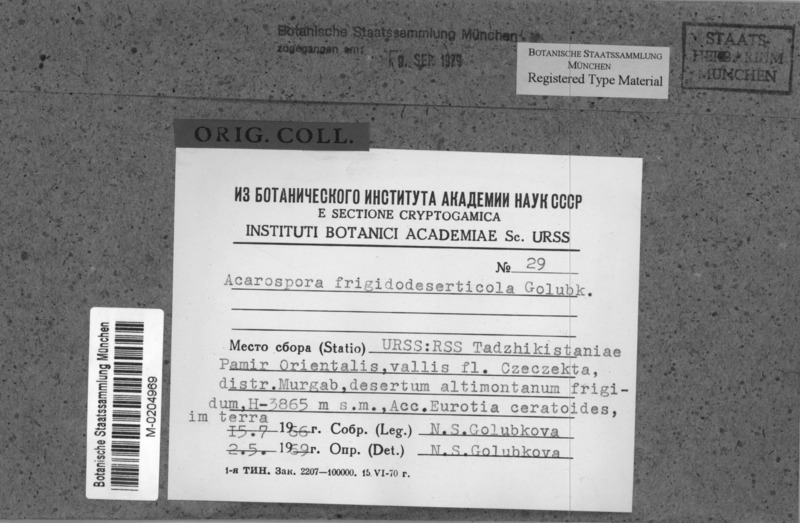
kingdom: Fungi
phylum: Ascomycota
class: Lecanoromycetes
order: Acarosporales
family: Acarosporaceae
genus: Acarospora
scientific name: Acarospora
